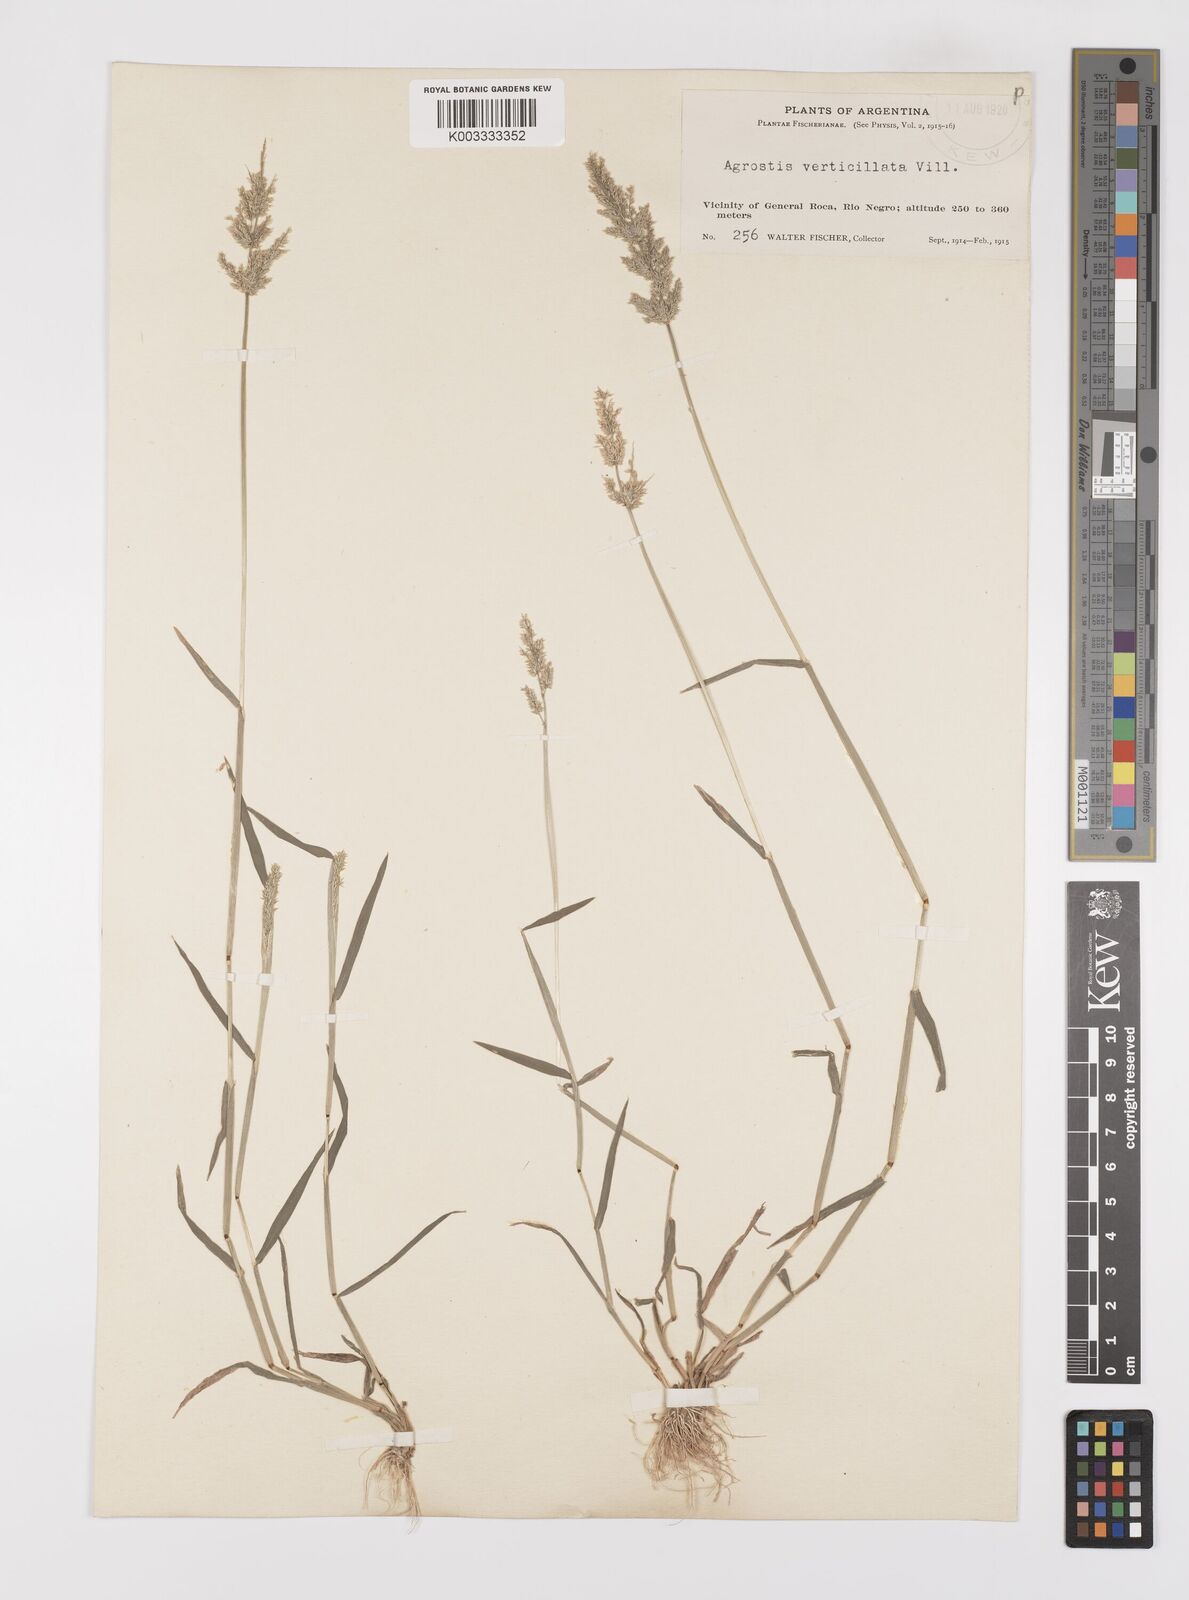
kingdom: Plantae
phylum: Tracheophyta
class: Liliopsida
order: Poales
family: Poaceae
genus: Polypogon
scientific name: Polypogon viridis
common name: Water bent
